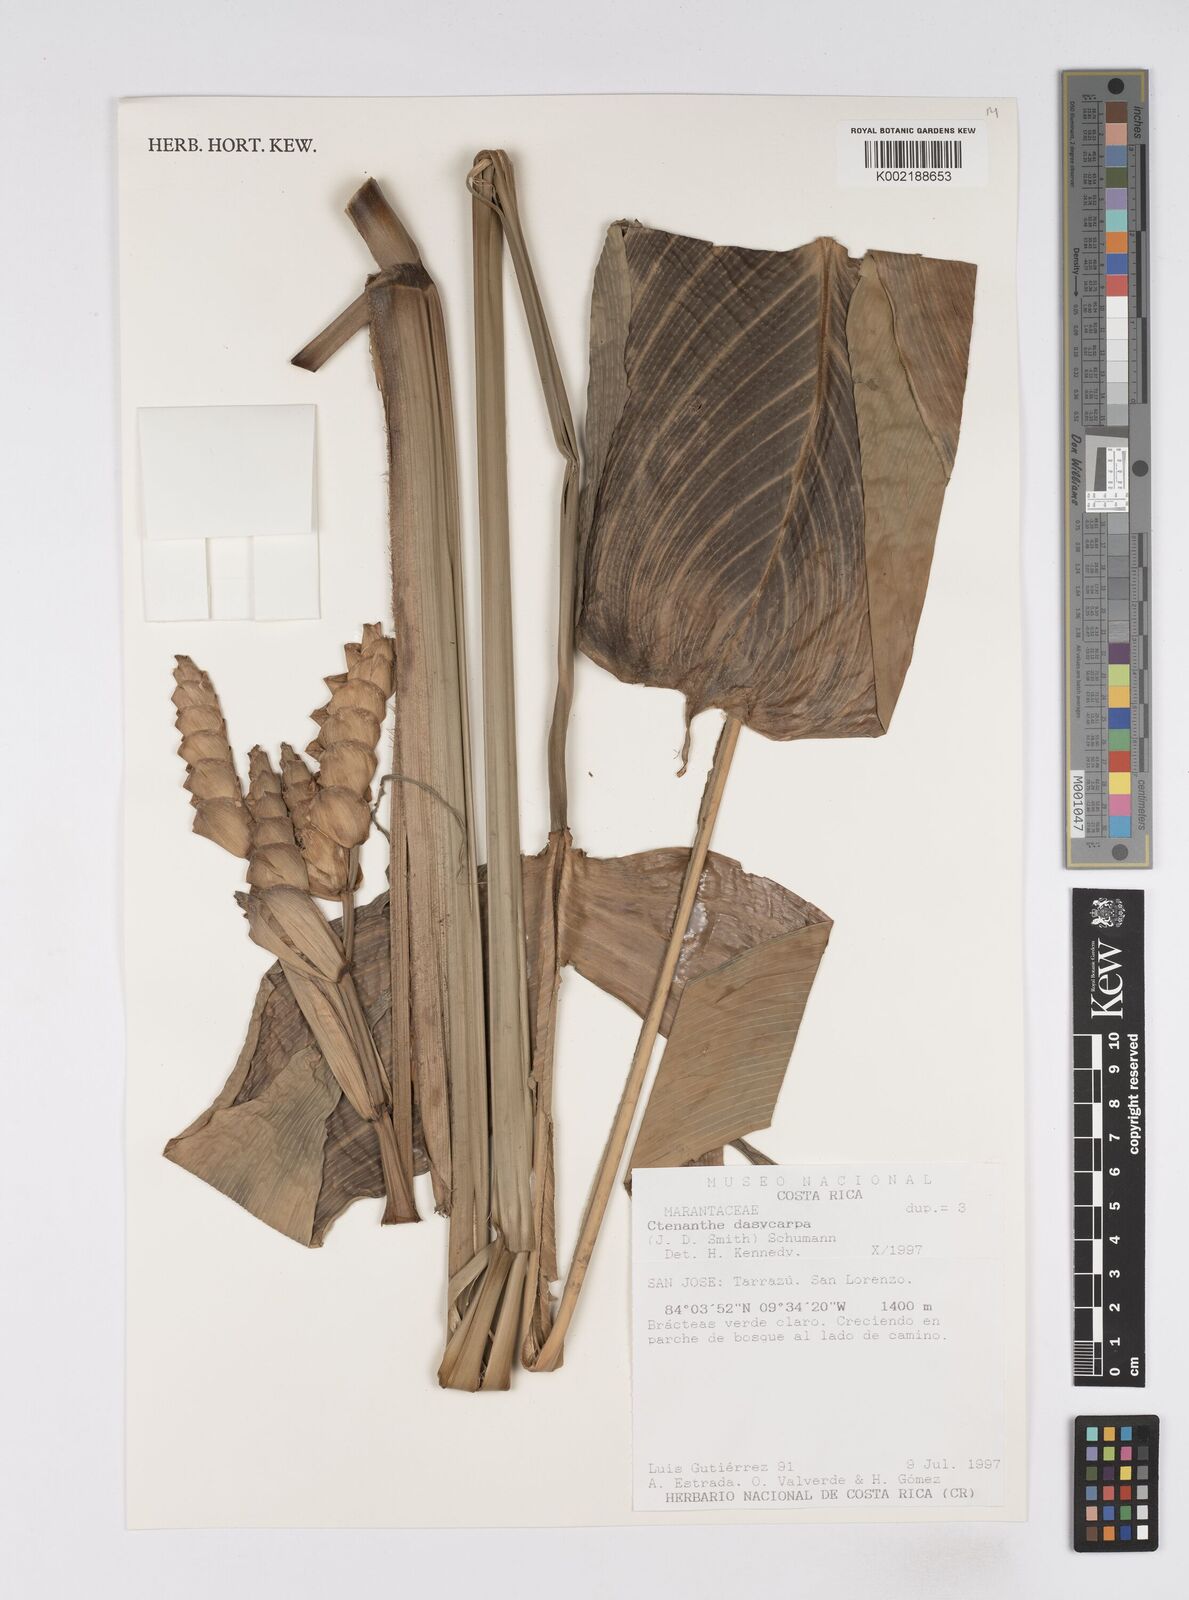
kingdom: Plantae
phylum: Tracheophyta
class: Liliopsida
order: Zingiberales
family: Marantaceae
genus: Ctenanthe
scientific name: Ctenanthe dasycarpa
